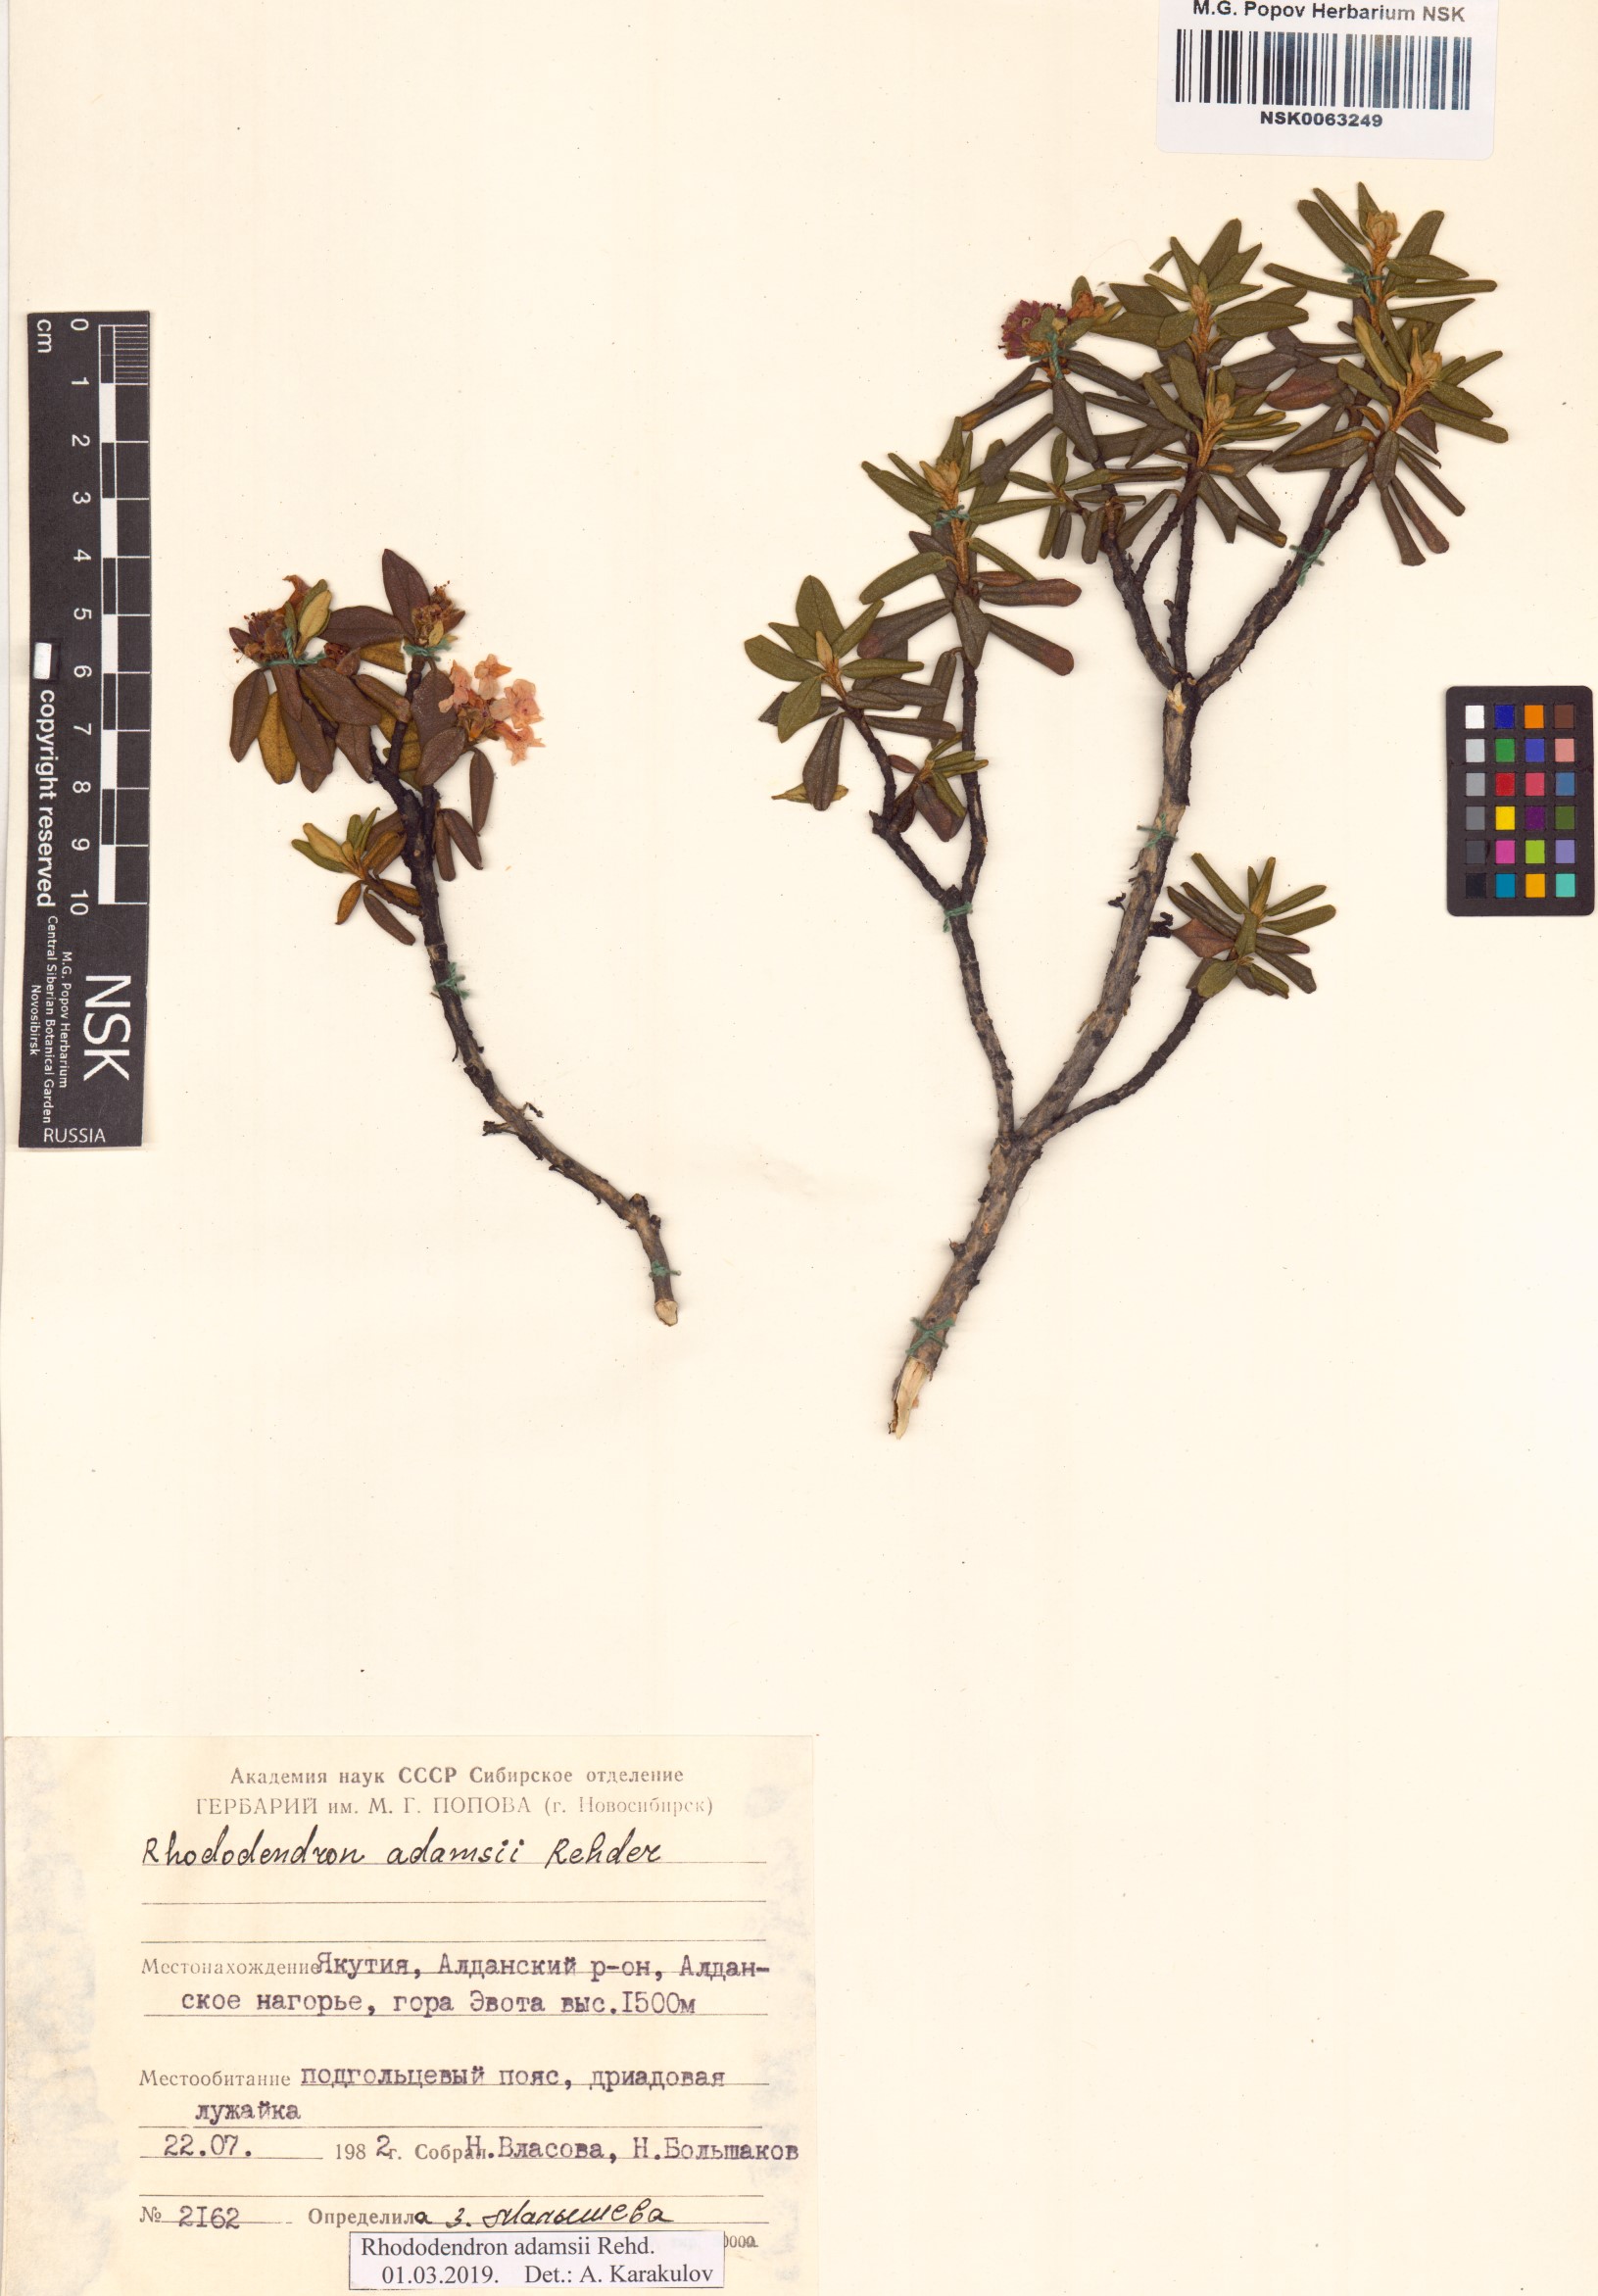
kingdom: Plantae
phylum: Tracheophyta
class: Magnoliopsida
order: Ericales
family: Ericaceae
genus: Rhododendron
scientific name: Rhododendron adamsii
